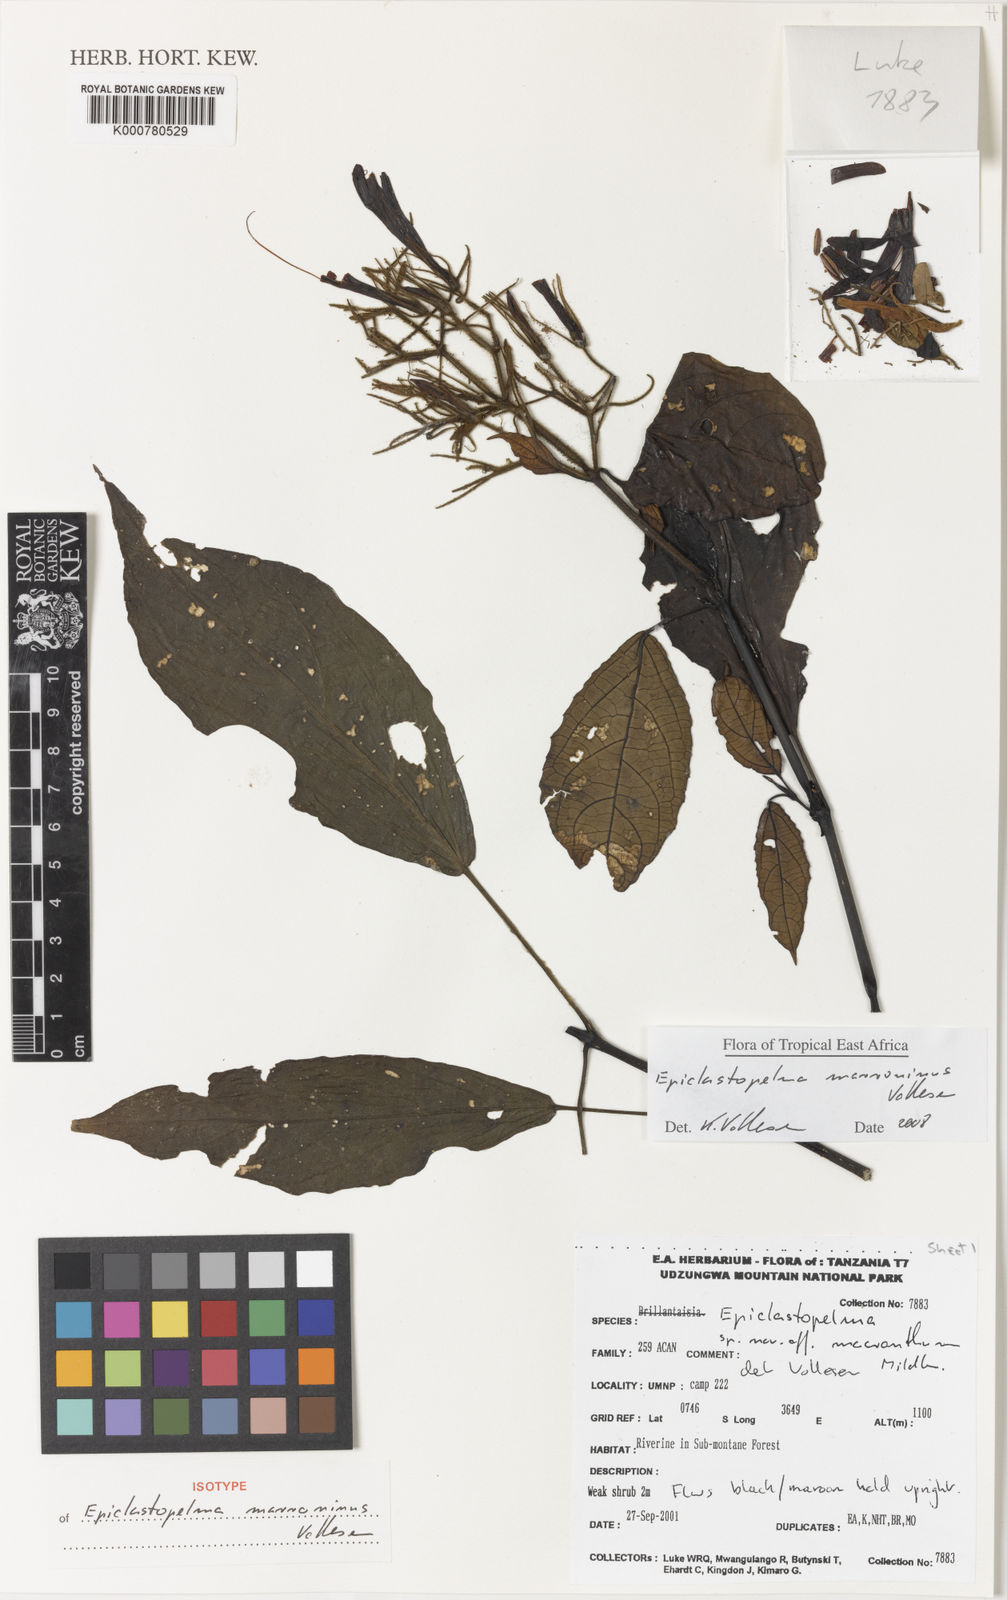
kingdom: Plantae
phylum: Tracheophyta
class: Magnoliopsida
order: Lamiales
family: Acanthaceae
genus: Mimulopsis
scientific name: Mimulopsis marronina
